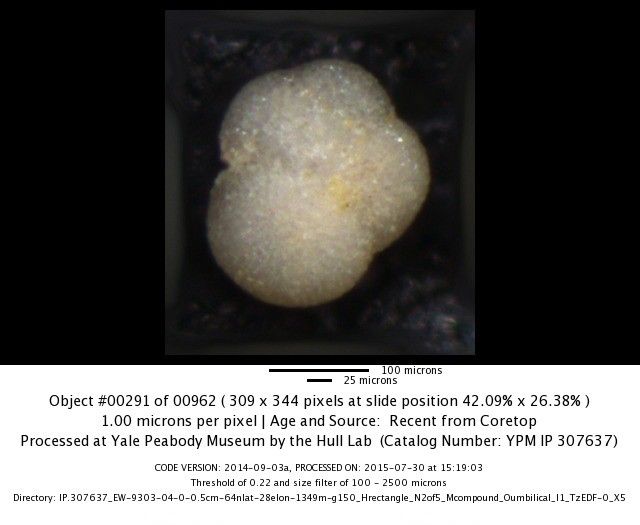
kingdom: Chromista
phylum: Foraminifera
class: Globothalamea
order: Rotaliida
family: Globorotaliidae
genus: Neogloboquadrina
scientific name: Neogloboquadrina incompta
